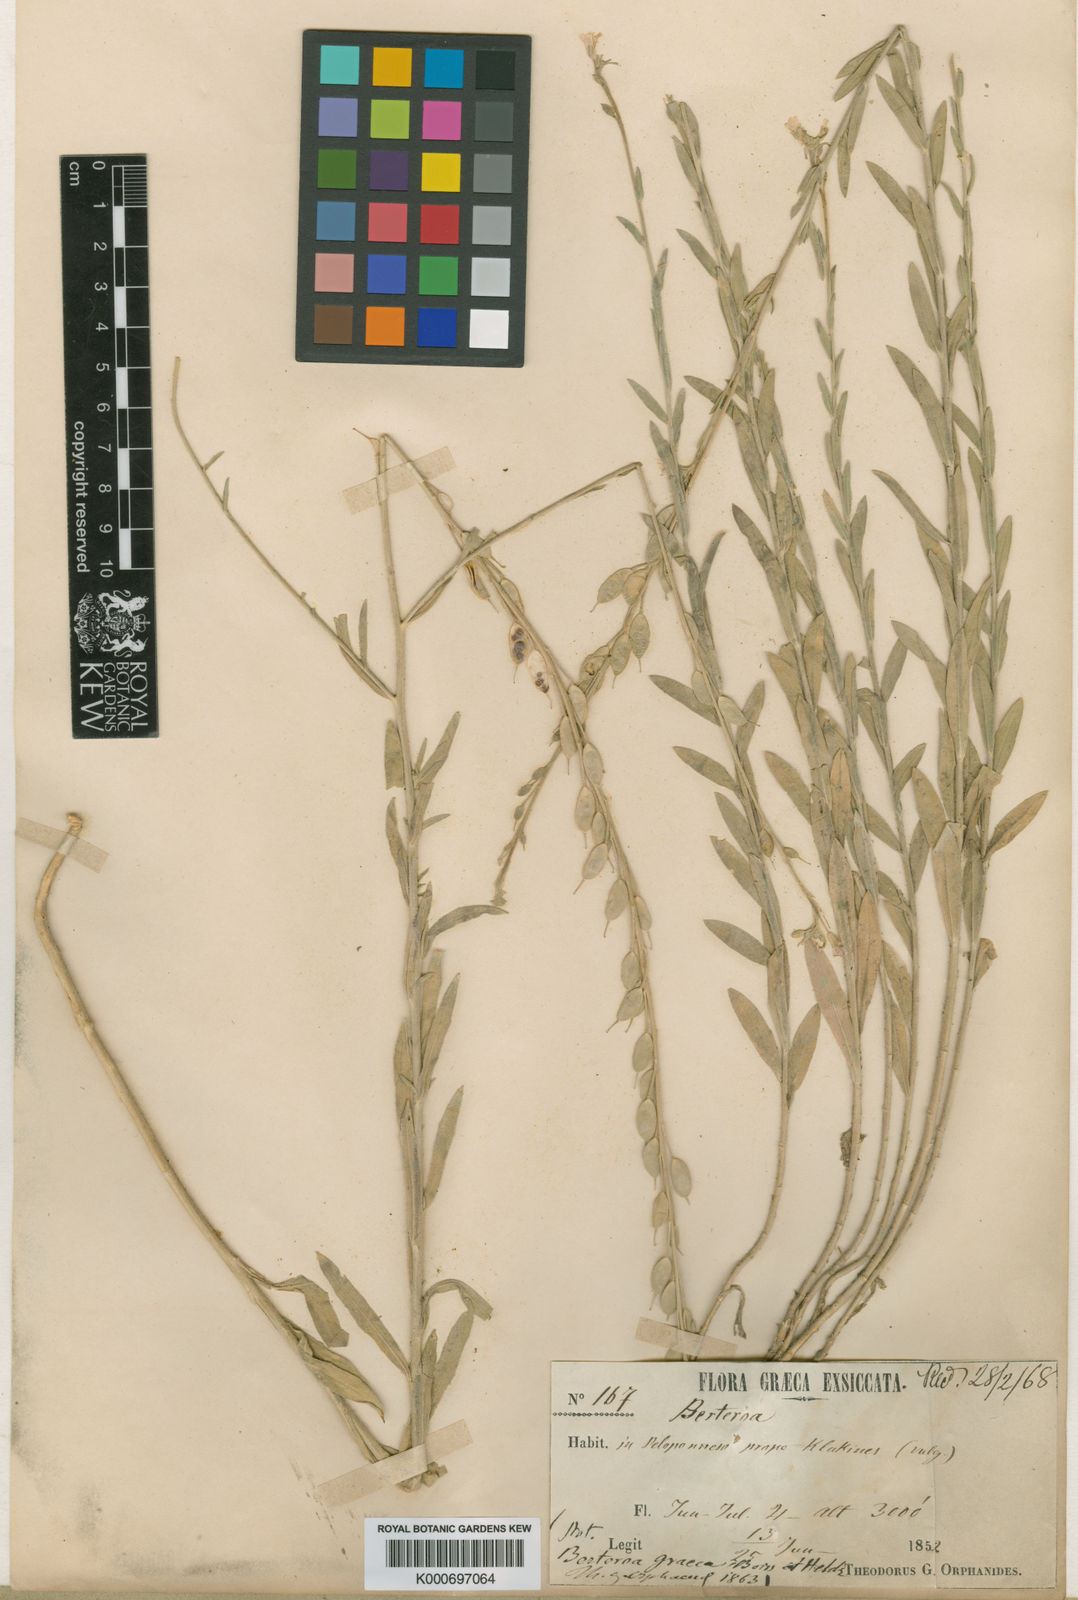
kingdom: Plantae
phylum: Tracheophyta
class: Magnoliopsida
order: Brassicales
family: Brassicaceae
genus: Berteroa
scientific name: Berteroa obliqua
